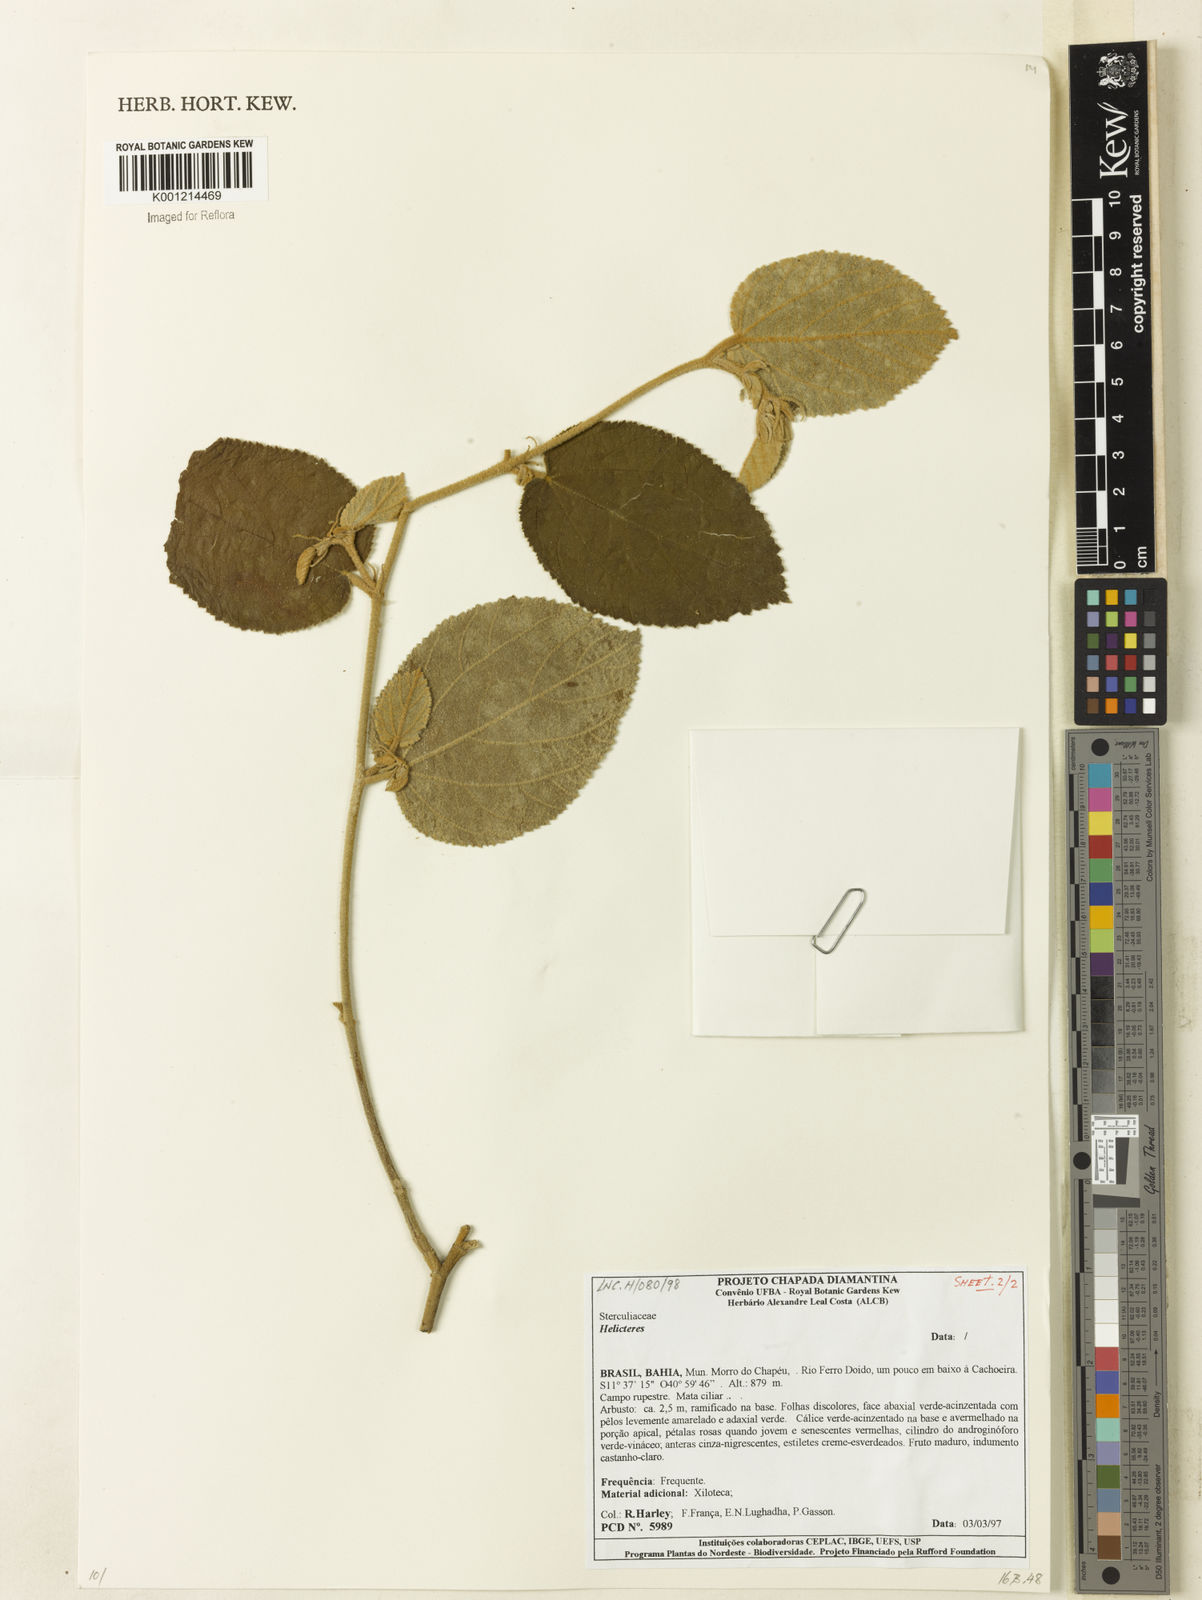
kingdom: Plantae
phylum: Tracheophyta
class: Magnoliopsida
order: Malvales
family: Malvaceae
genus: Helicteres
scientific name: Helicteres
